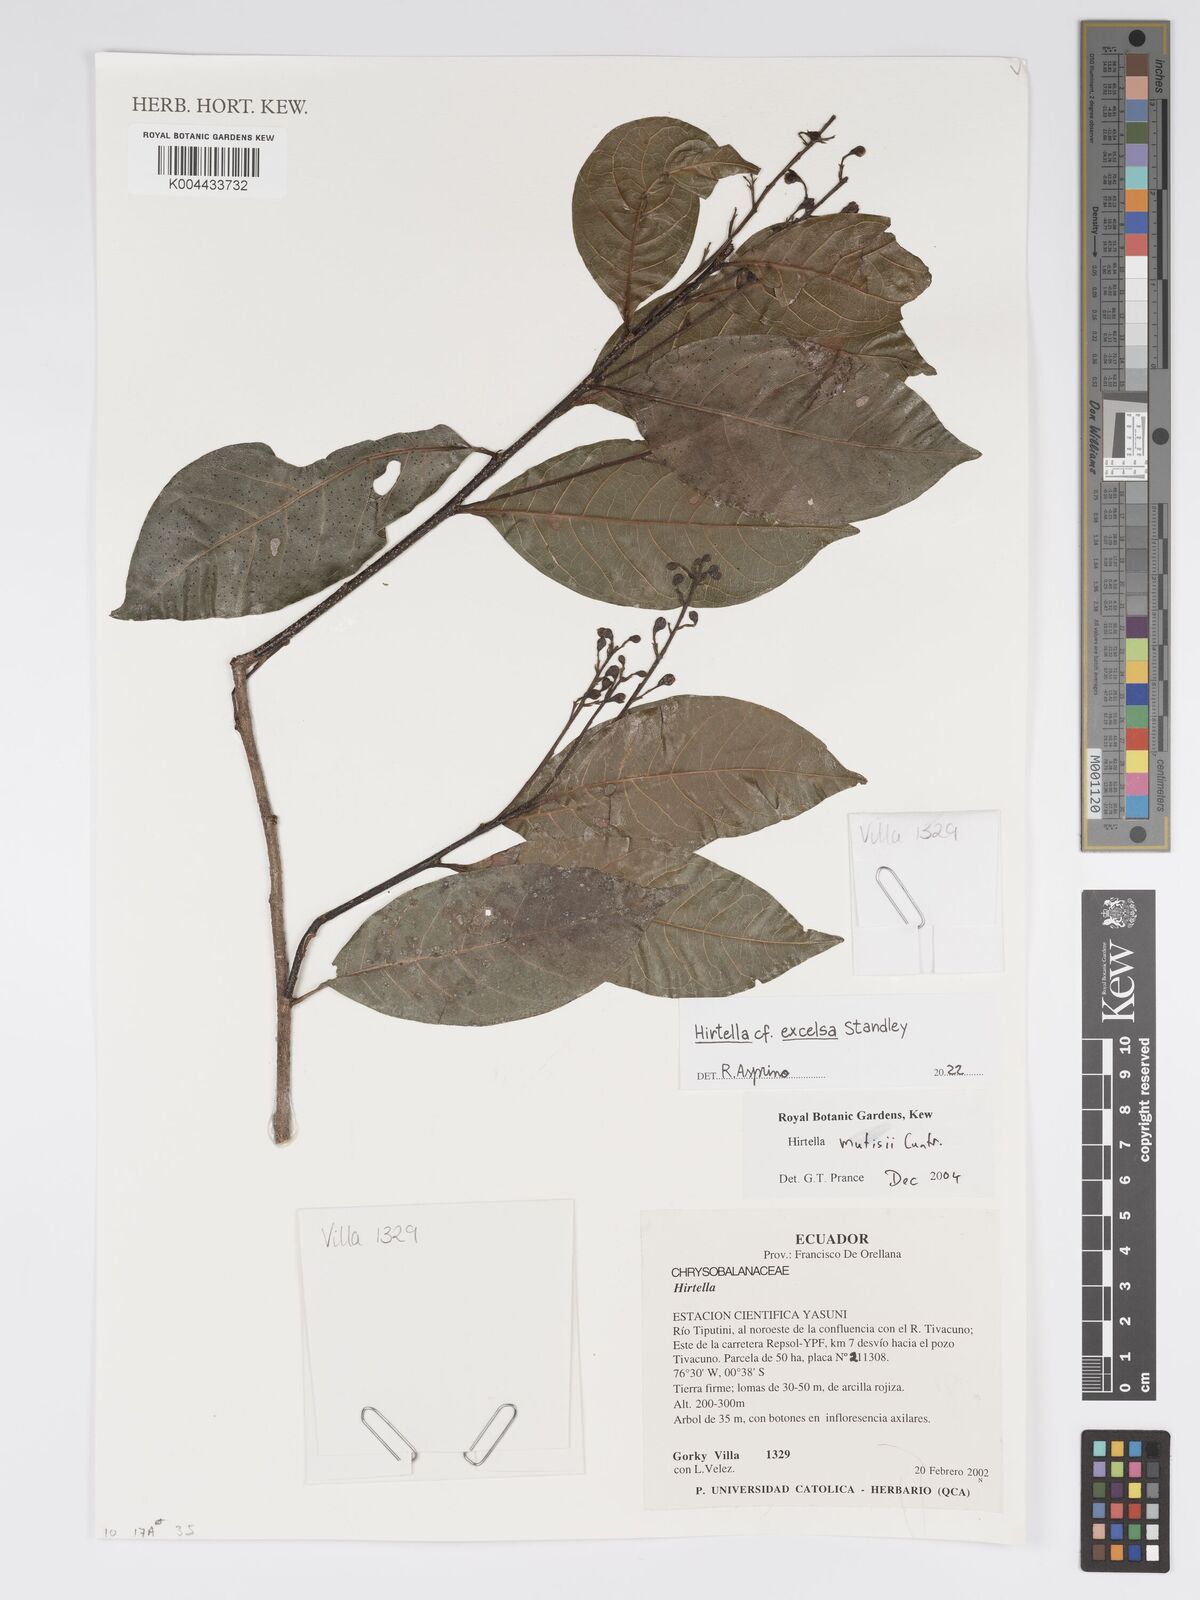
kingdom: Plantae
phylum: Tracheophyta
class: Magnoliopsida
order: Malpighiales
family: Chrysobalanaceae
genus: Hirtella
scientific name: Hirtella excelsa
